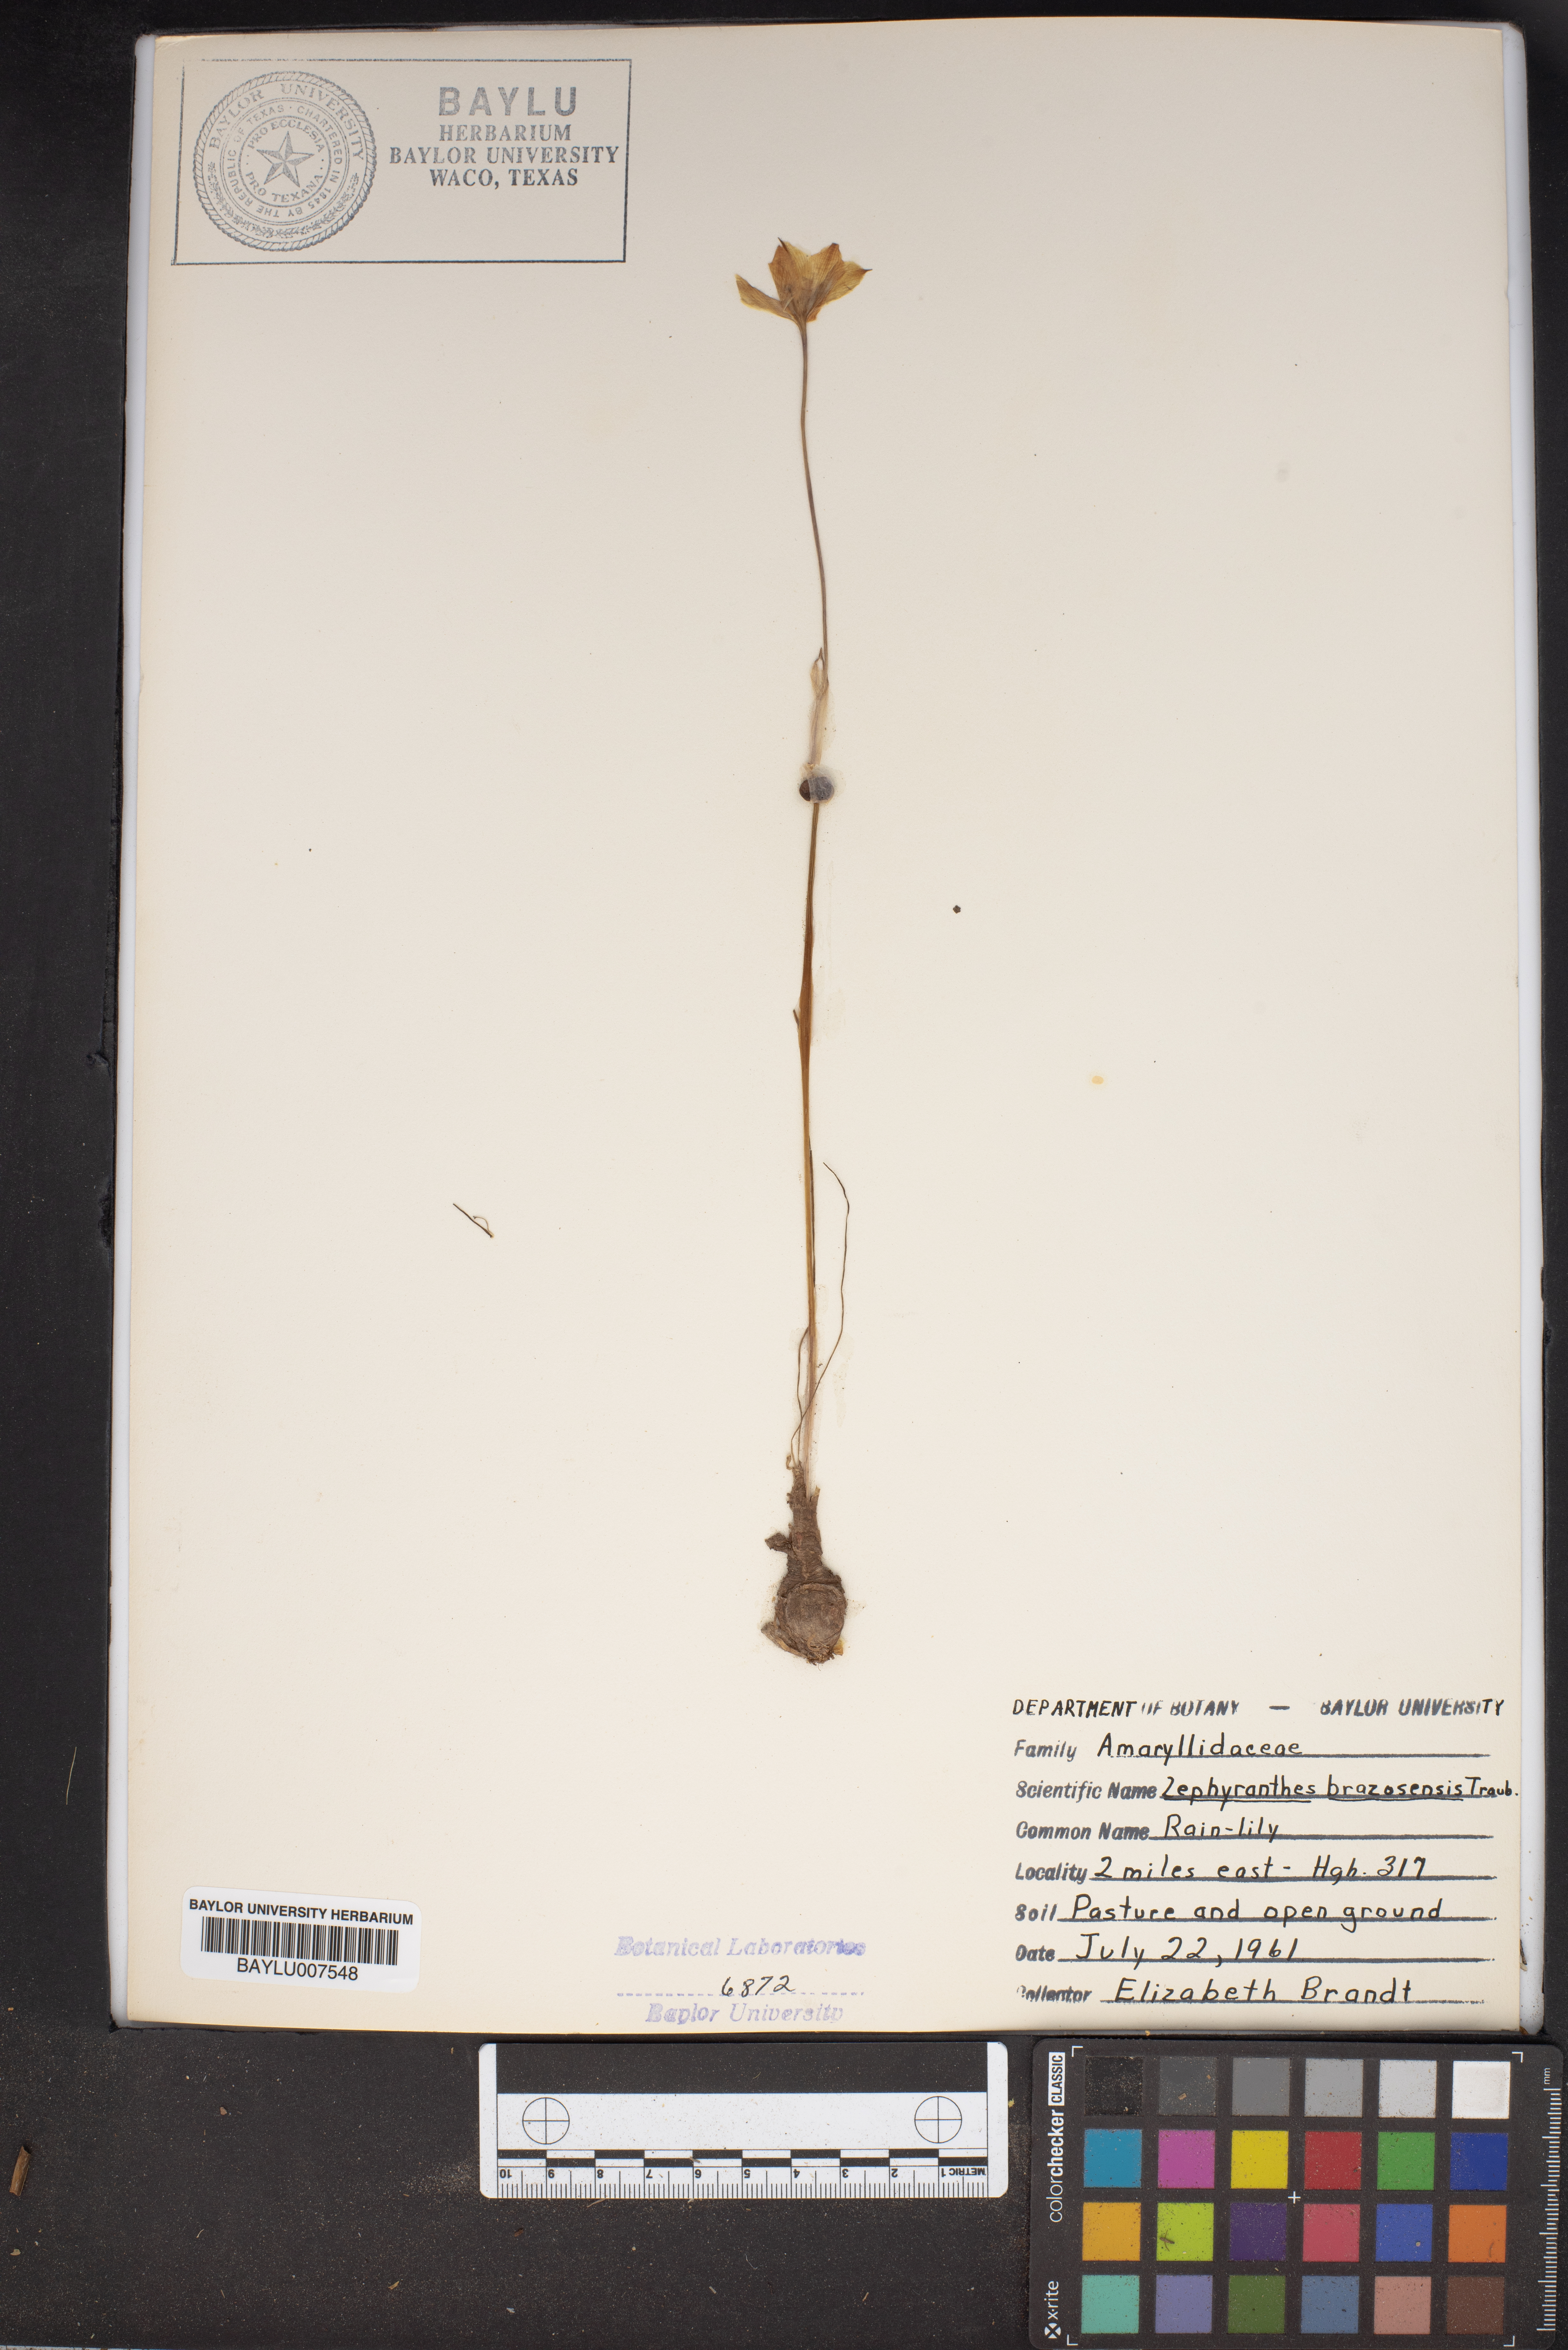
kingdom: Plantae
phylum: Tracheophyta
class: Liliopsida
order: Asparagales
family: Amaryllidaceae
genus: Zephyranthes
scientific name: Zephyranthes chlorosolen
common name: Evening rain-lily
